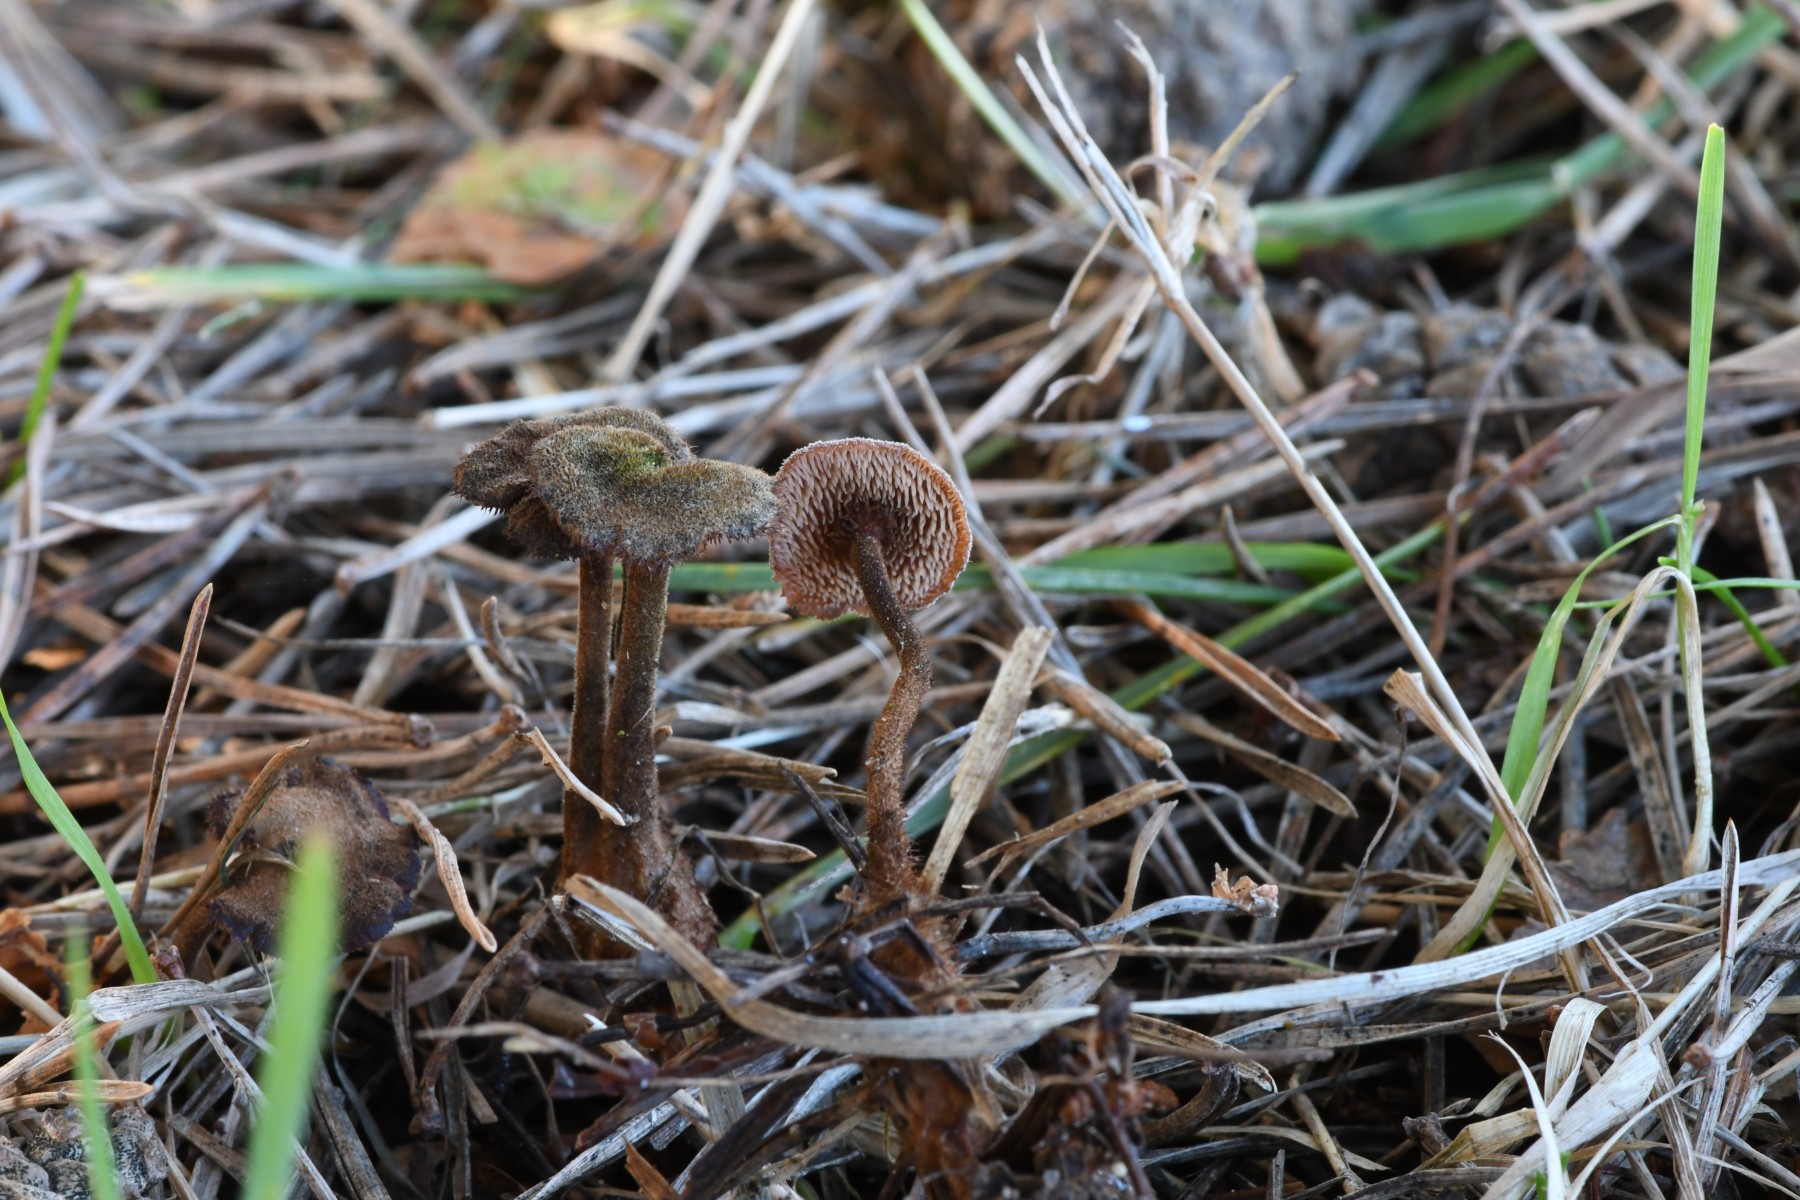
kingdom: Fungi
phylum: Basidiomycota
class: Agaricomycetes
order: Russulales
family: Auriscalpiaceae
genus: Auriscalpium
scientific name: Auriscalpium vulgare
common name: koglepigsvamp
